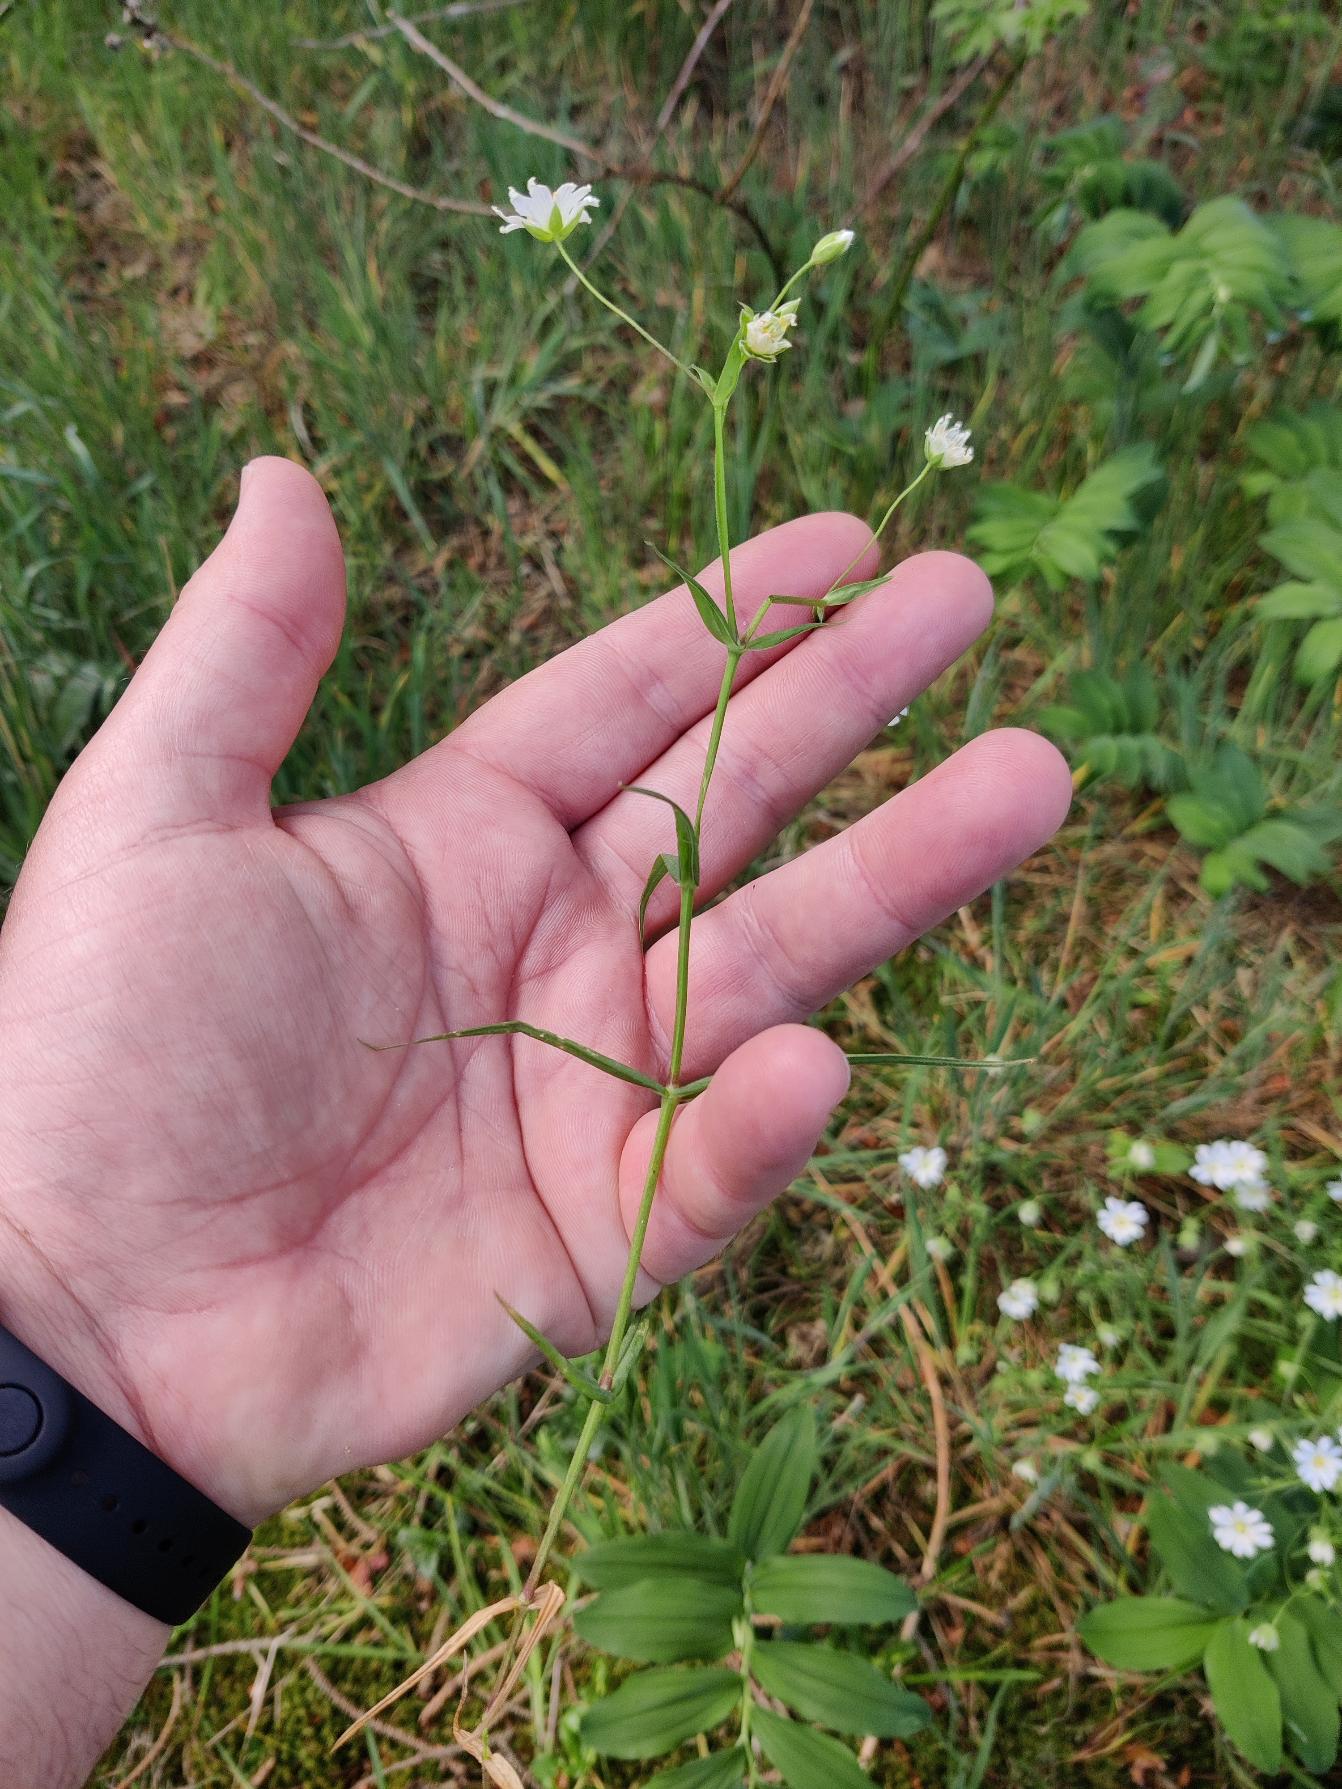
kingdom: Plantae
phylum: Tracheophyta
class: Magnoliopsida
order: Caryophyllales
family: Caryophyllaceae
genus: Rabelera
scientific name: Rabelera holostea
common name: Stor fladstjerne
